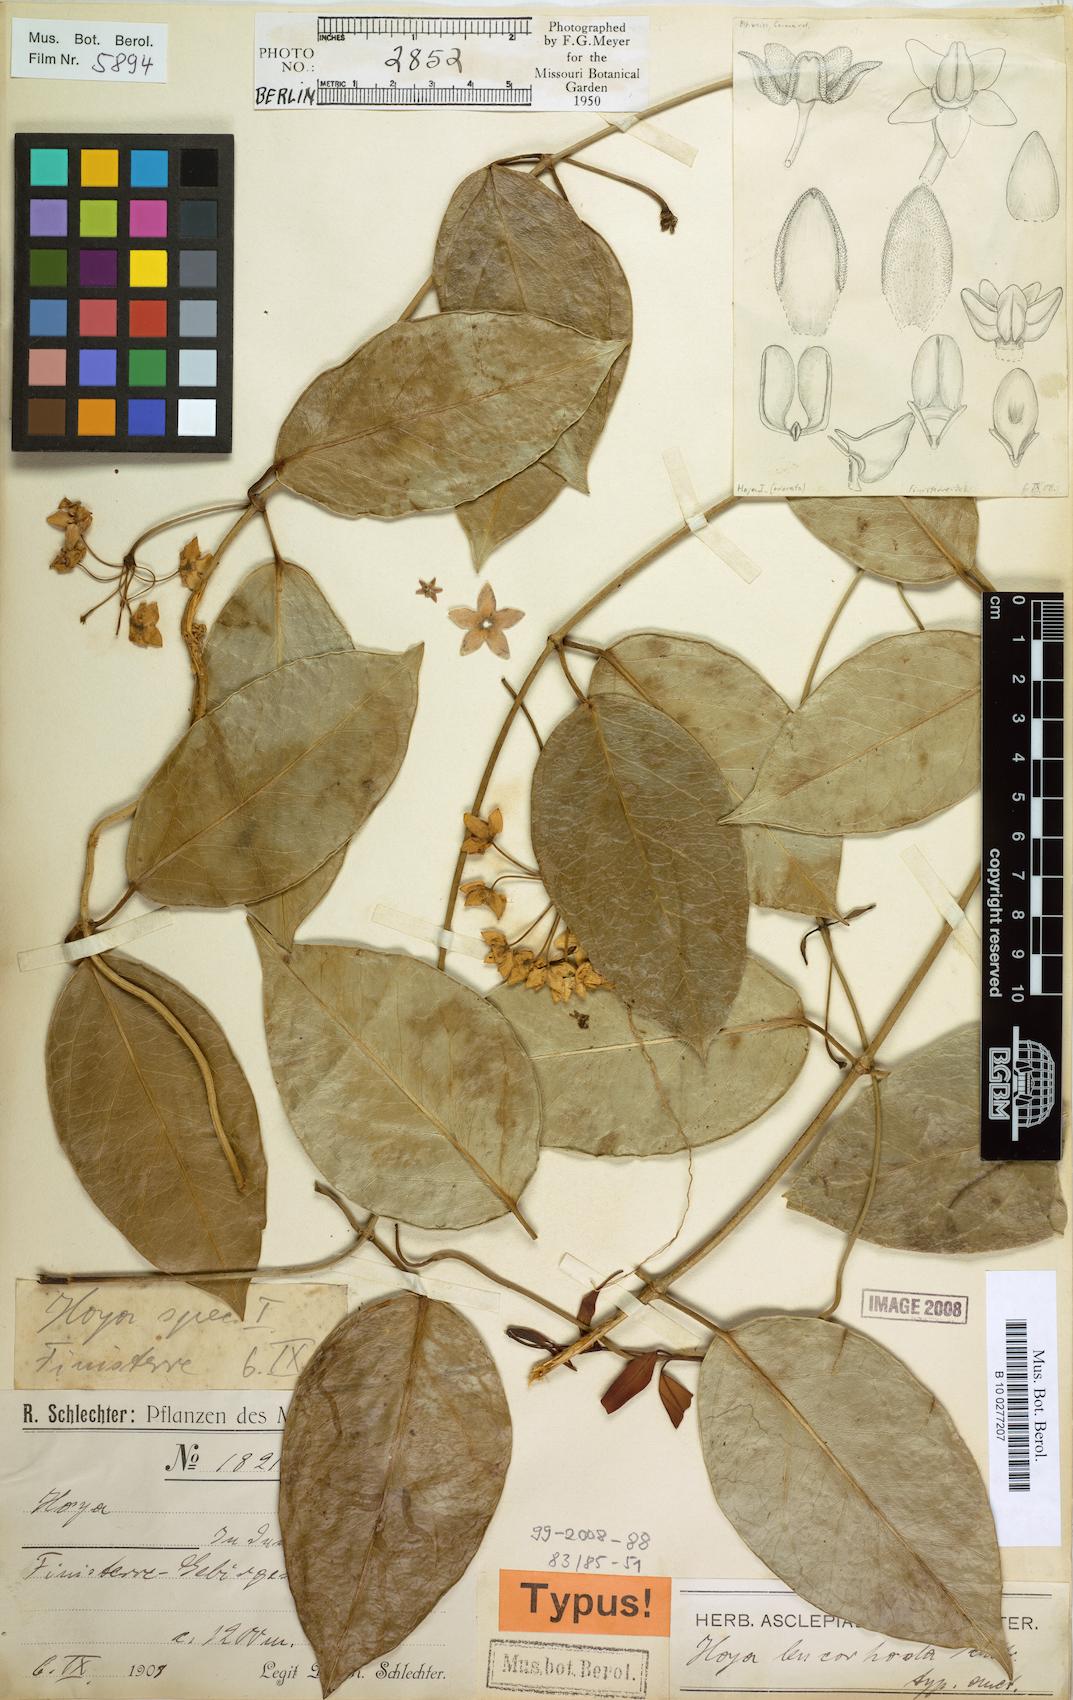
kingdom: Plantae
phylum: Tracheophyta
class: Magnoliopsida
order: Gentianales
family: Apocynaceae
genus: Hoya
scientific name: Hoya subglabra
